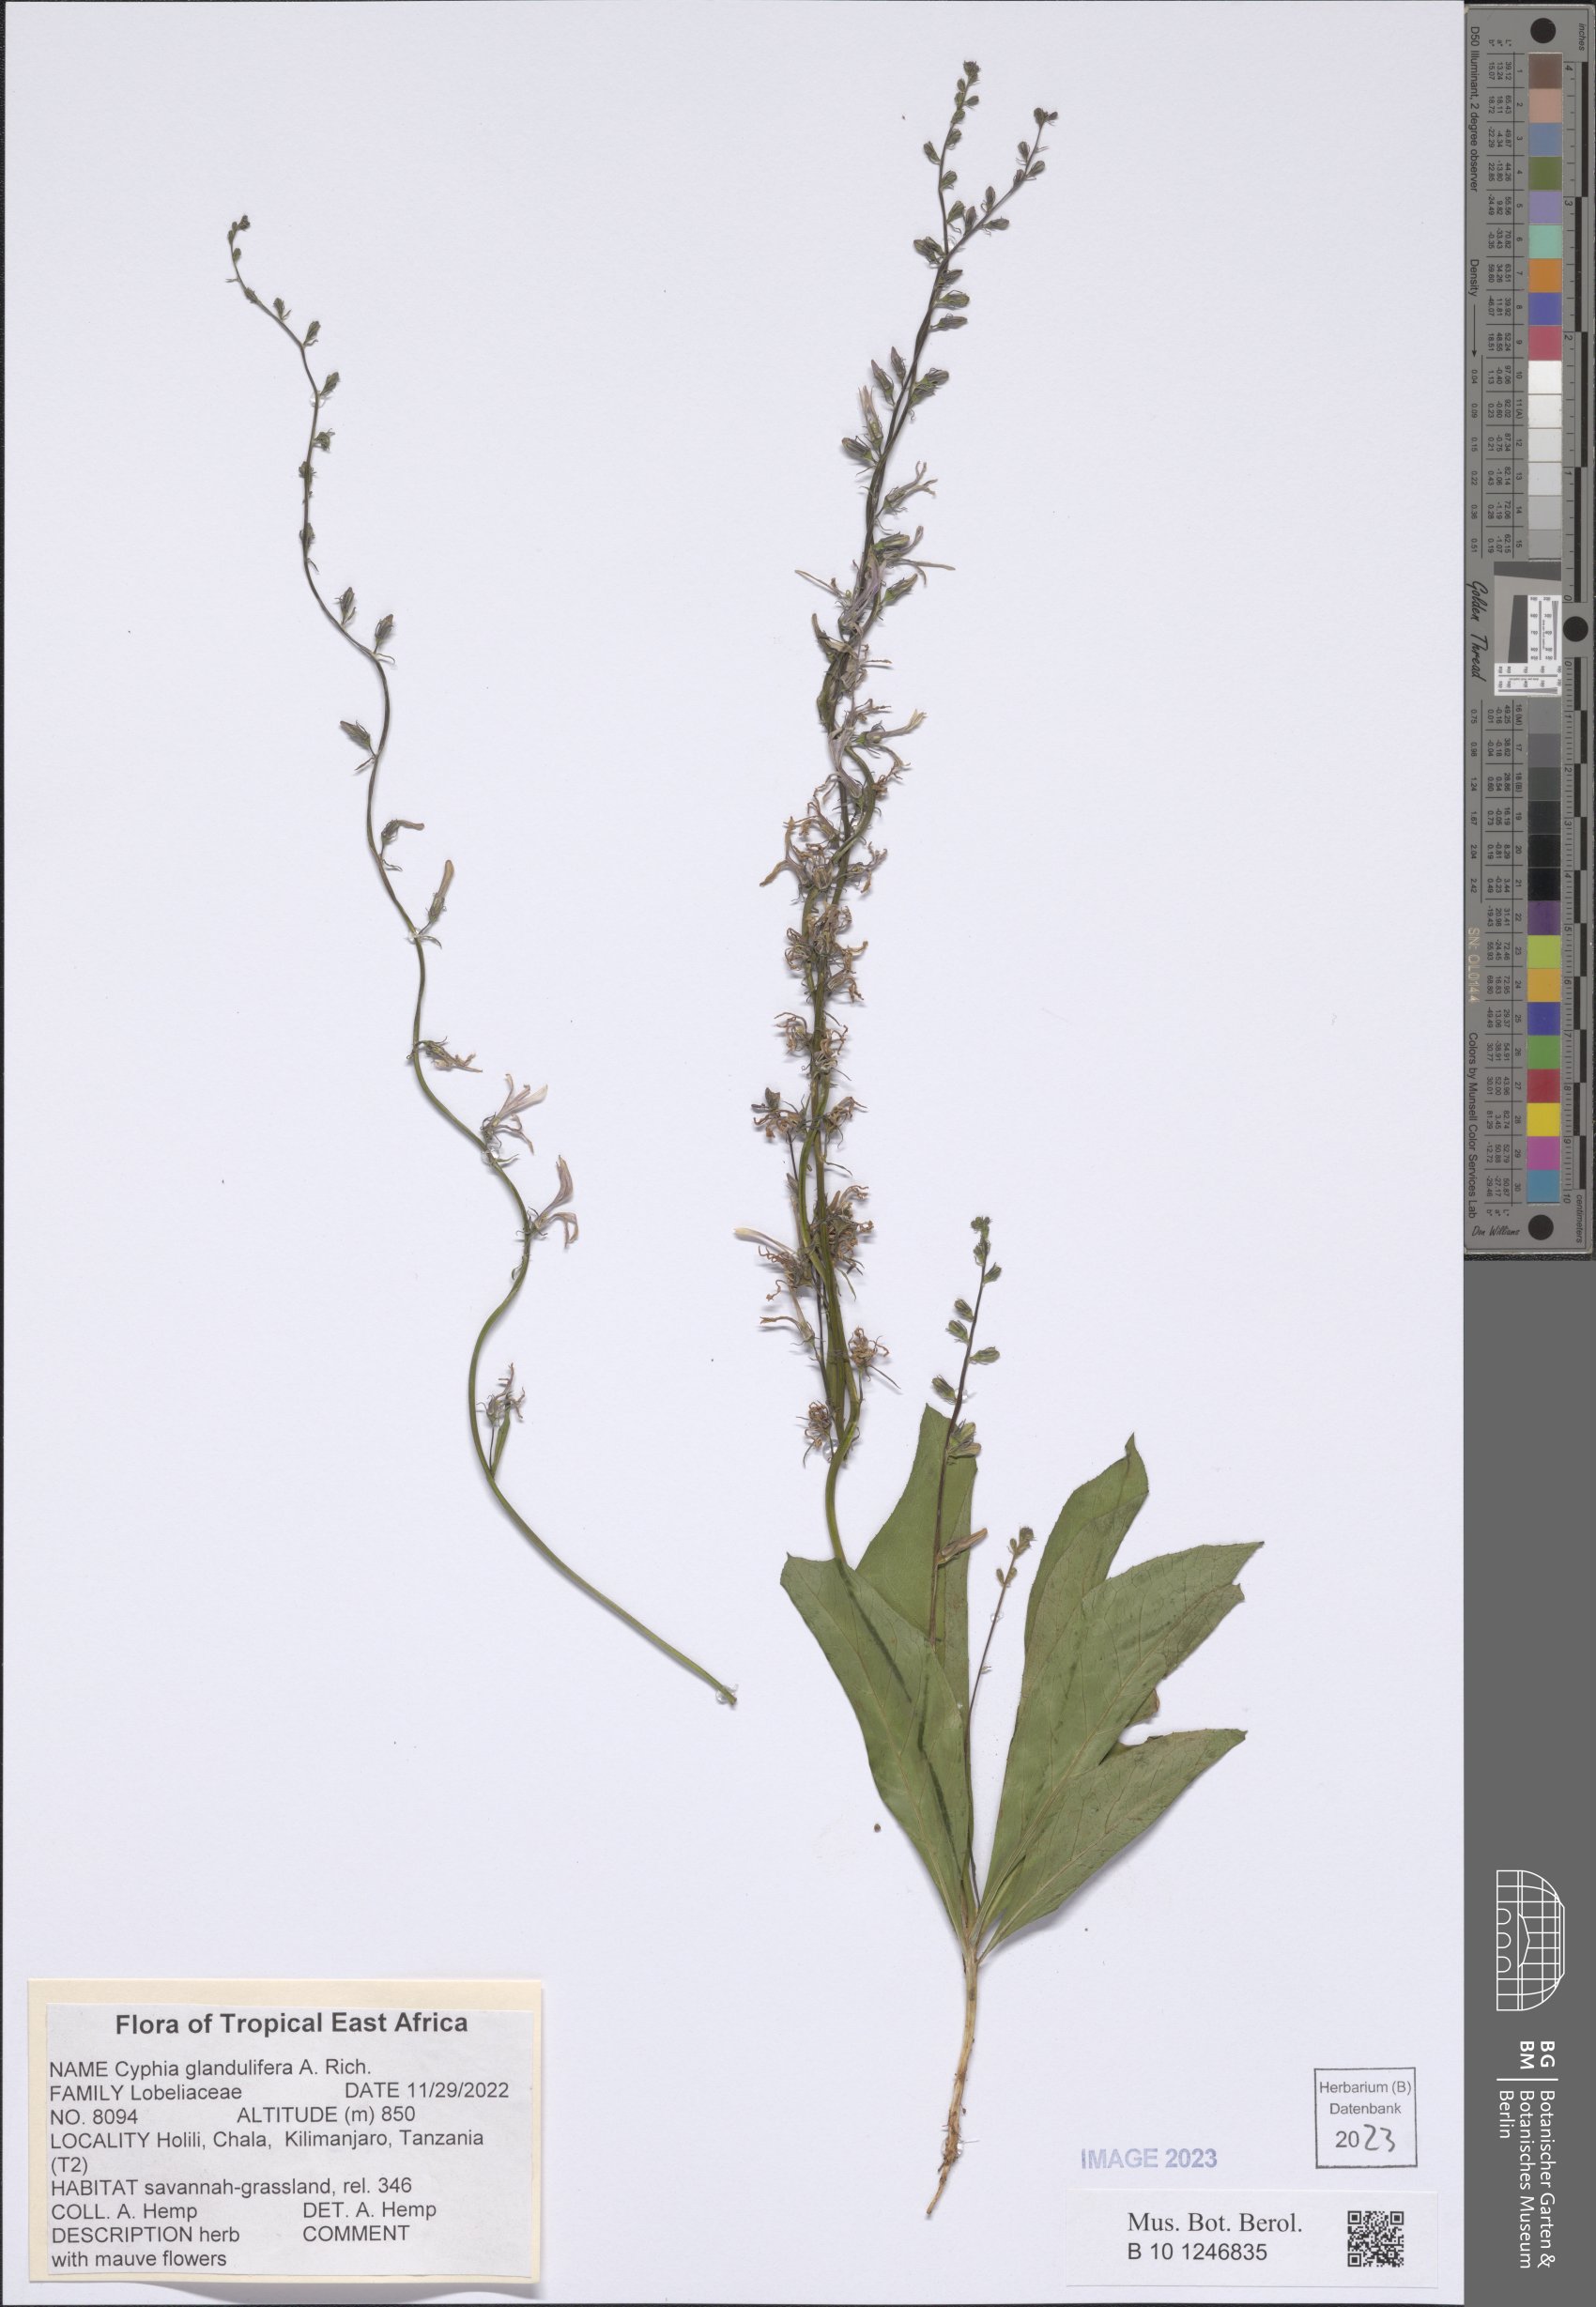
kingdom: Plantae
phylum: Tracheophyta
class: Magnoliopsida
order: Asterales
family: Campanulaceae
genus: Cyphia
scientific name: Cyphia glandulifera
